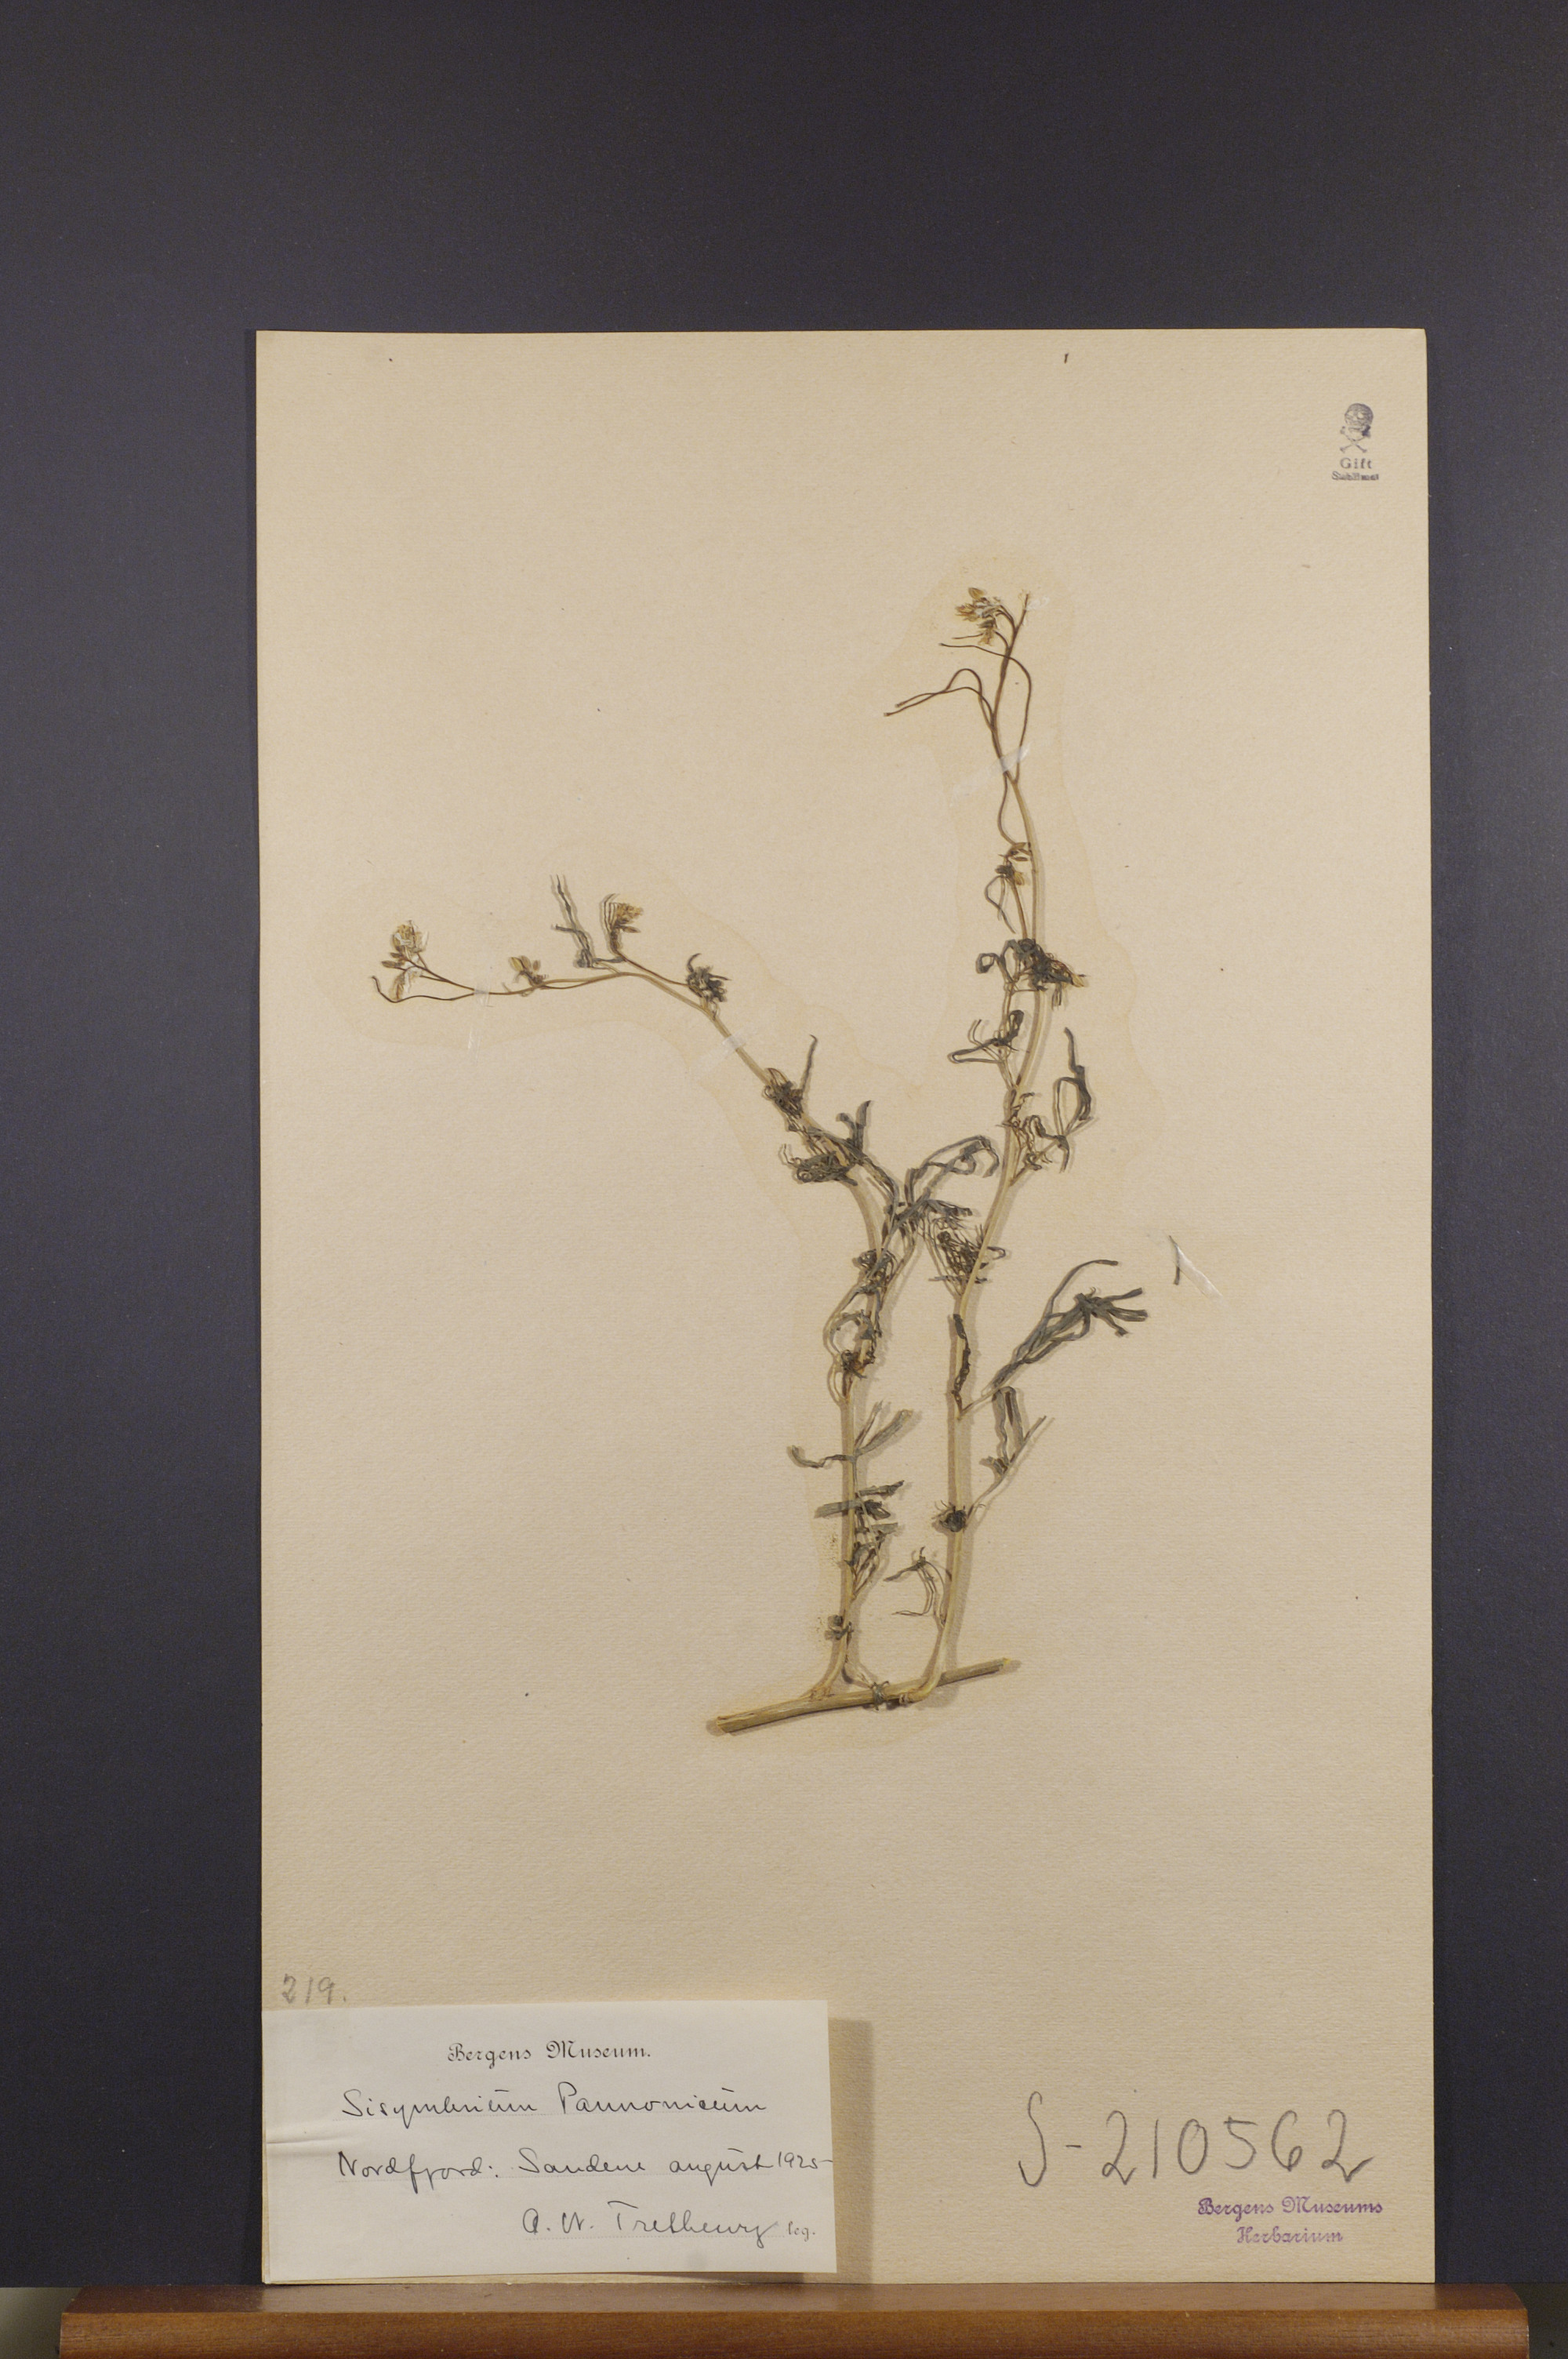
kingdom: Plantae
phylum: Tracheophyta
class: Magnoliopsida
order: Brassicales
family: Brassicaceae
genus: Sisymbrium
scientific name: Sisymbrium altissimum
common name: Tall rocket
